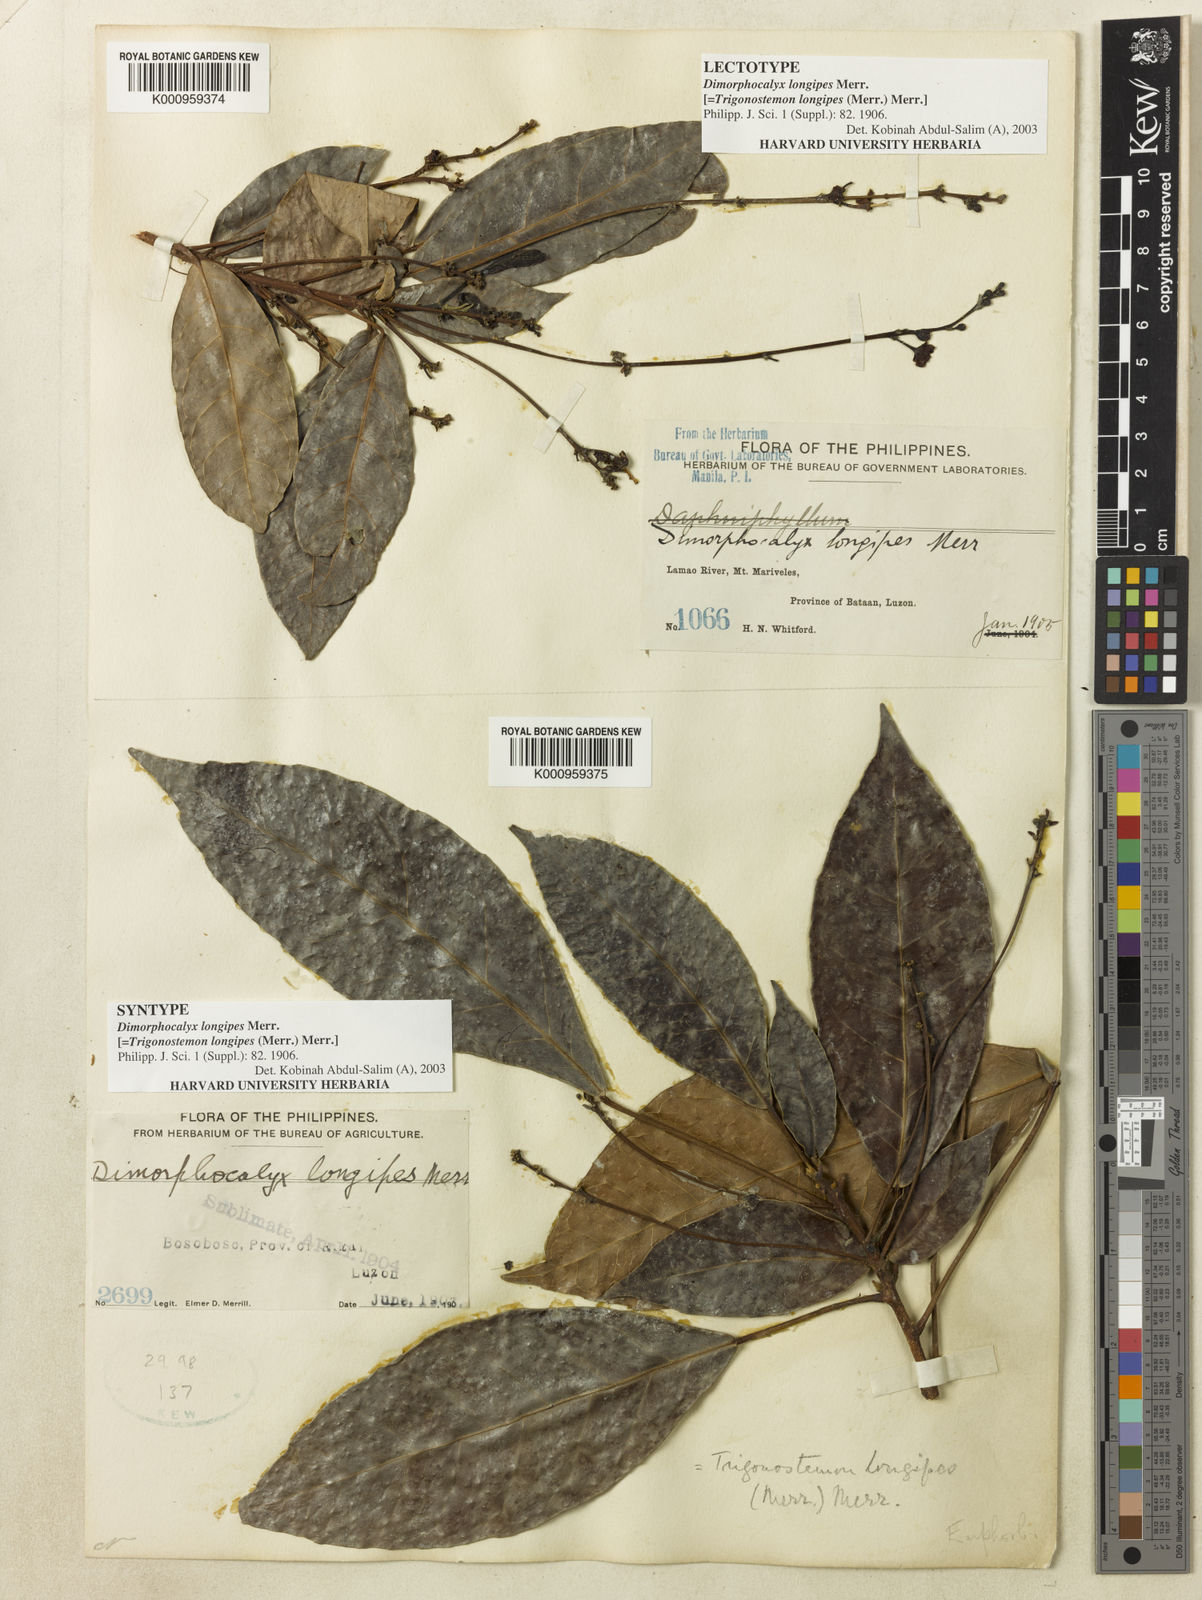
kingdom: Plantae
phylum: Tracheophyta
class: Magnoliopsida
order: Malpighiales
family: Euphorbiaceae
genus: Trigonostemon
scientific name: Trigonostemon longipes
